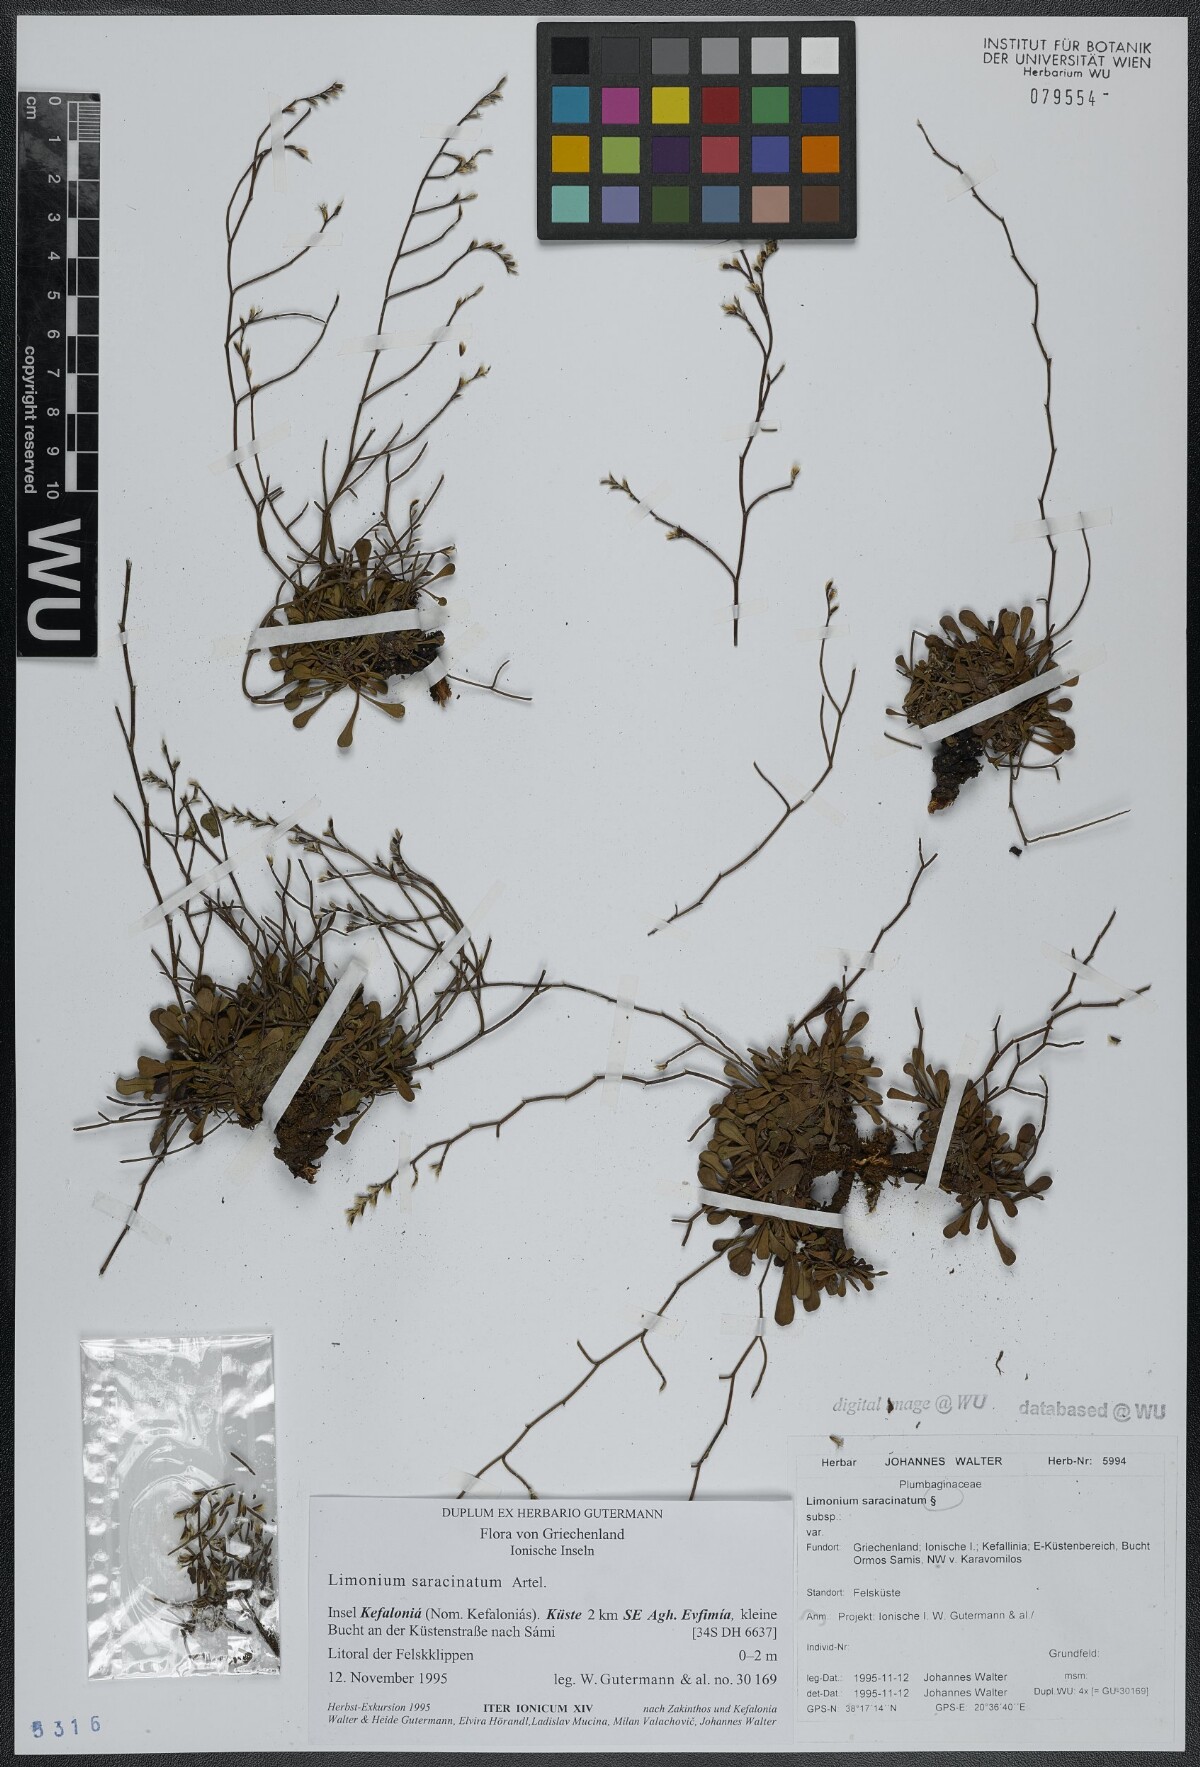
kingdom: Plantae
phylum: Tracheophyta
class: Magnoliopsida
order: Caryophyllales
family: Plumbaginaceae
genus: Limonium
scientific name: Limonium saracinatum
